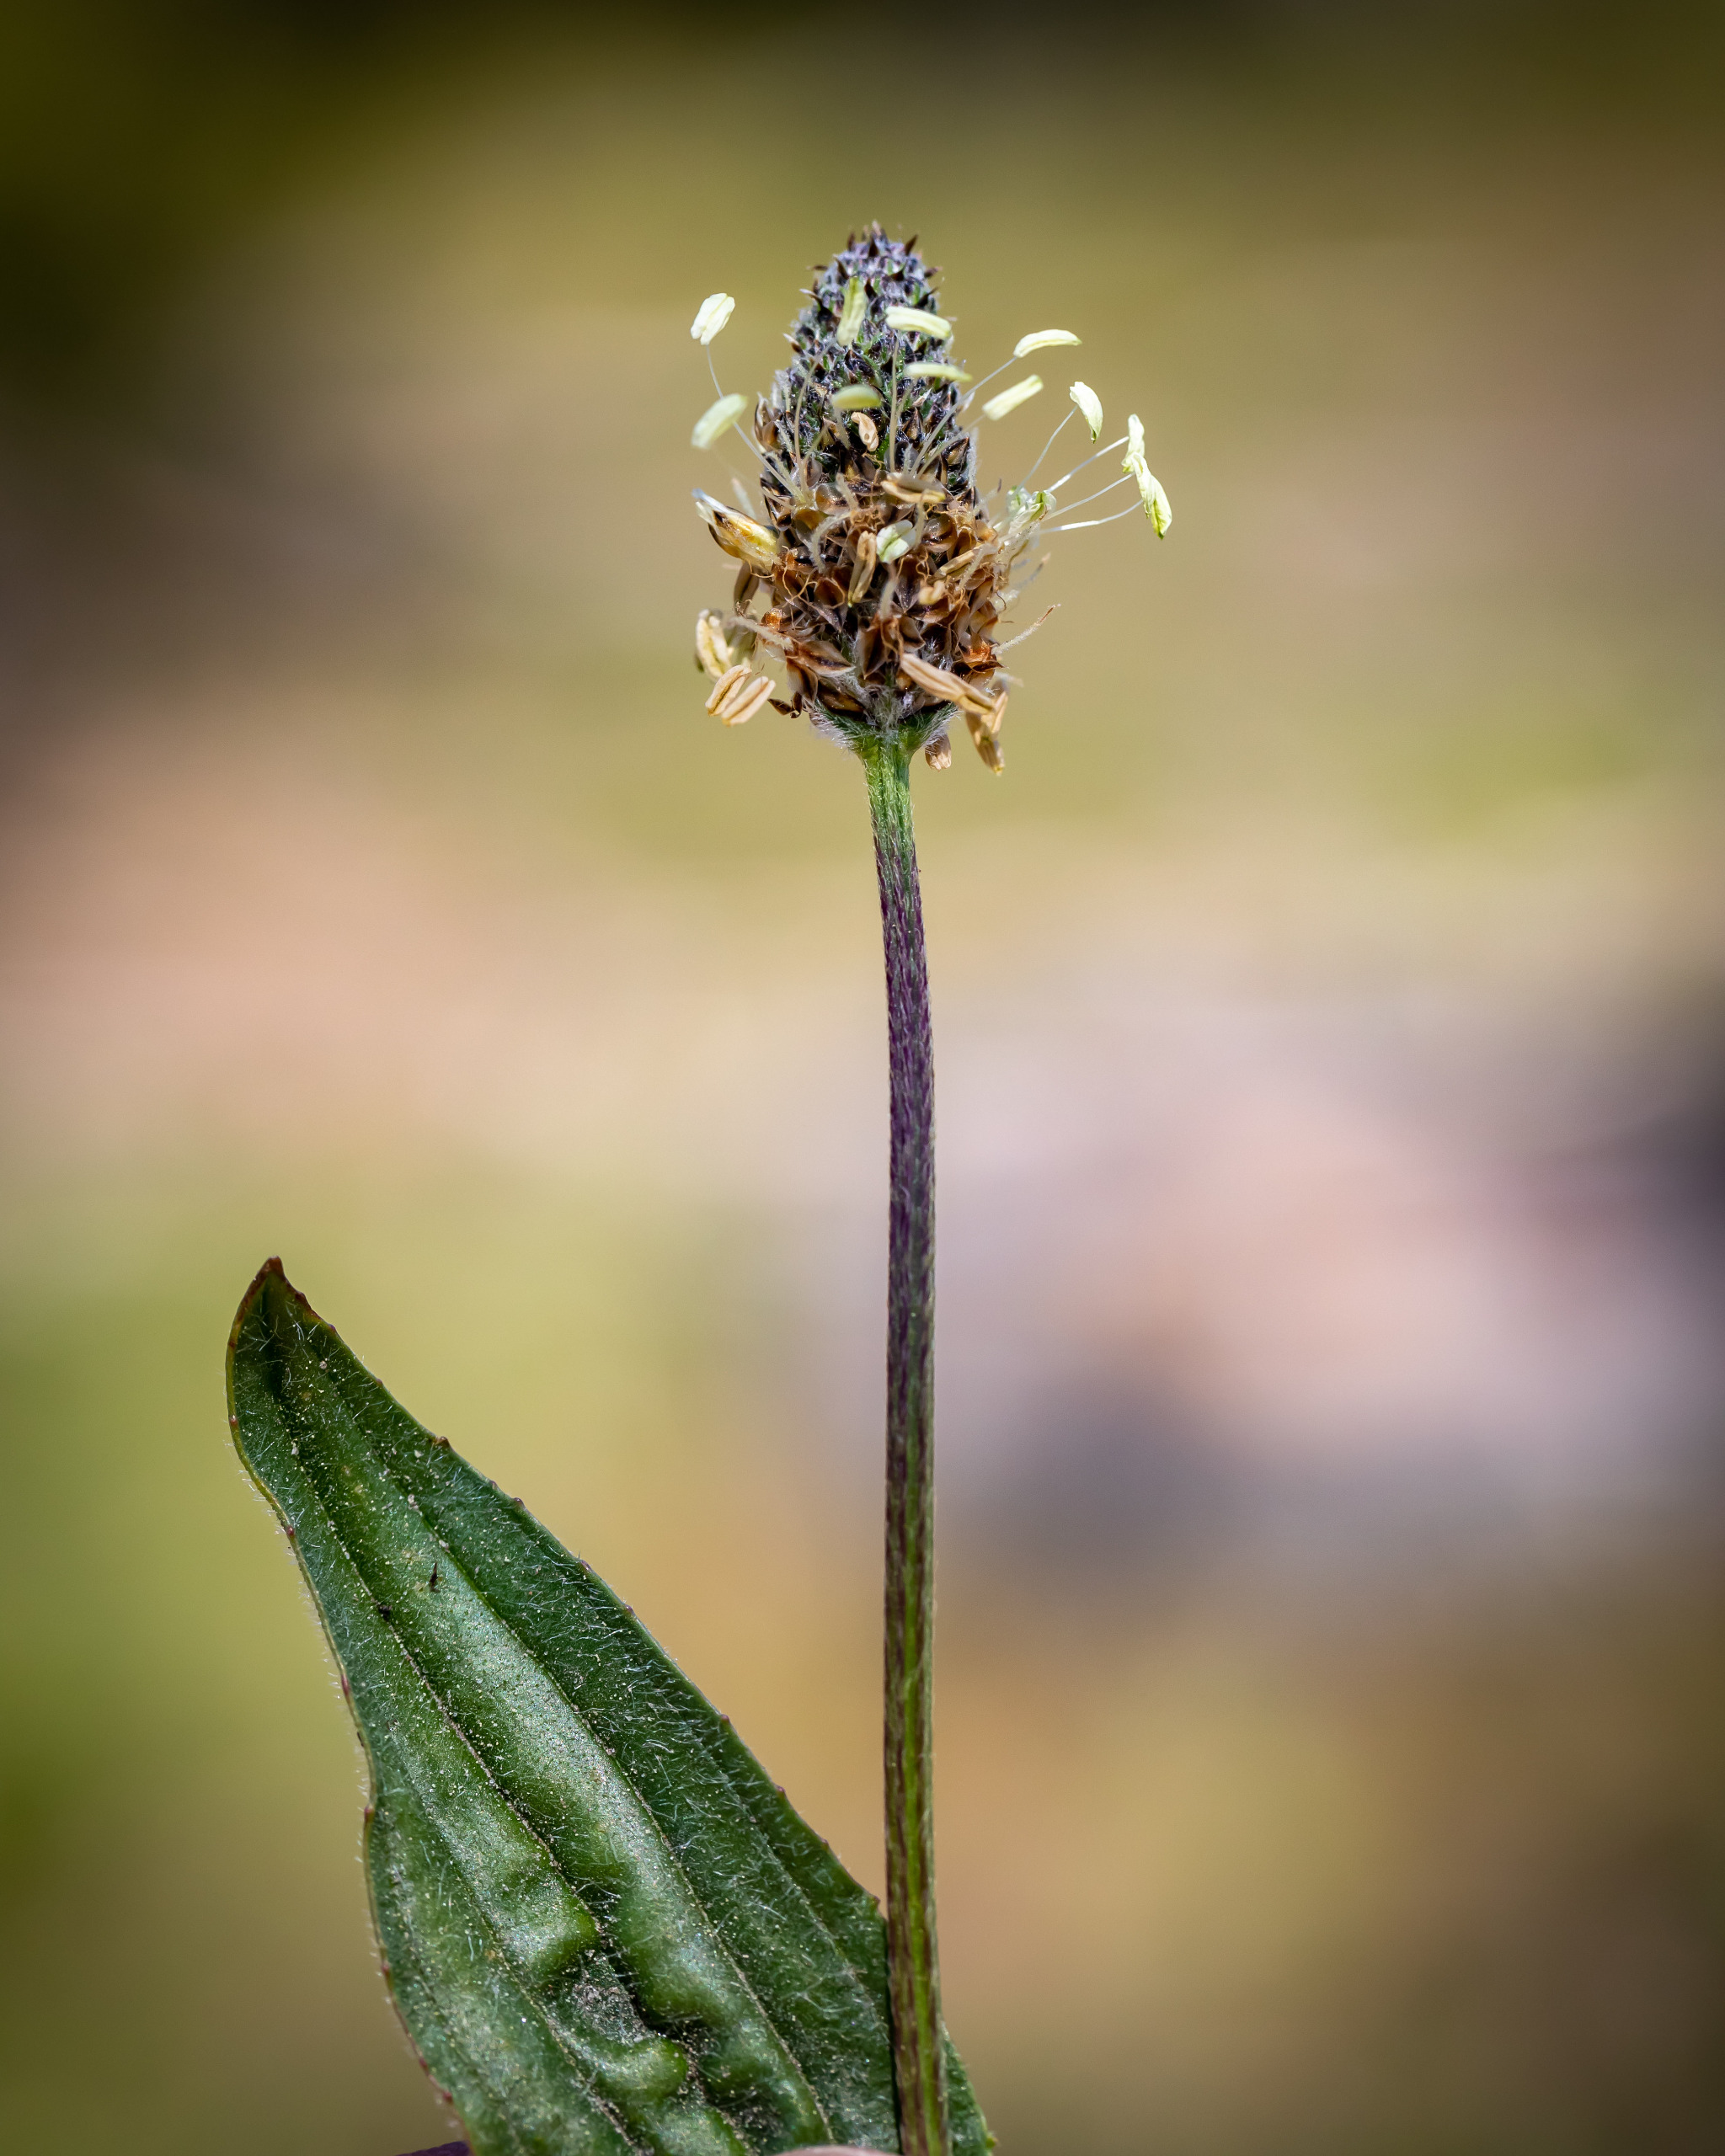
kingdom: Plantae
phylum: Tracheophyta
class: Magnoliopsida
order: Lamiales
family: Plantaginaceae
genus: Plantago
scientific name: Plantago lanceolata
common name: Lancet-vejbred
